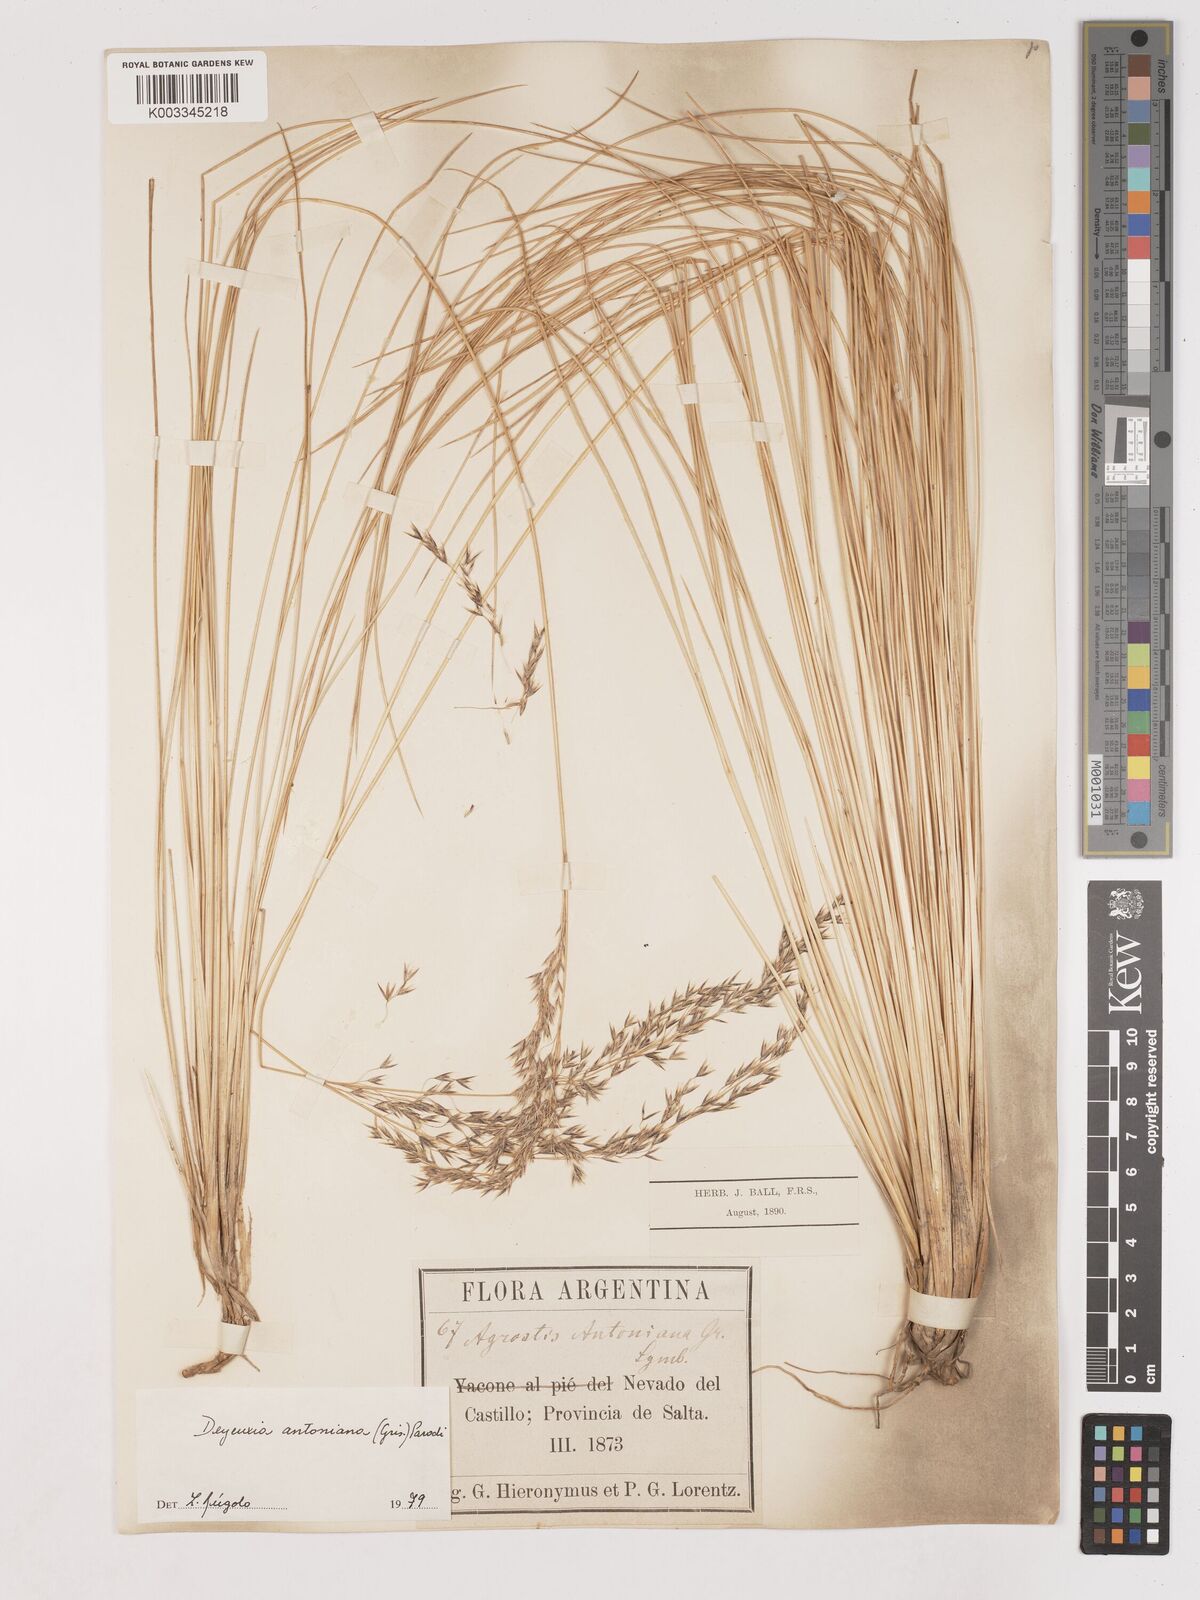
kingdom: Plantae
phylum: Tracheophyta
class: Liliopsida
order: Poales
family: Poaceae
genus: Cinnagrostis
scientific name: Cinnagrostis rigida
